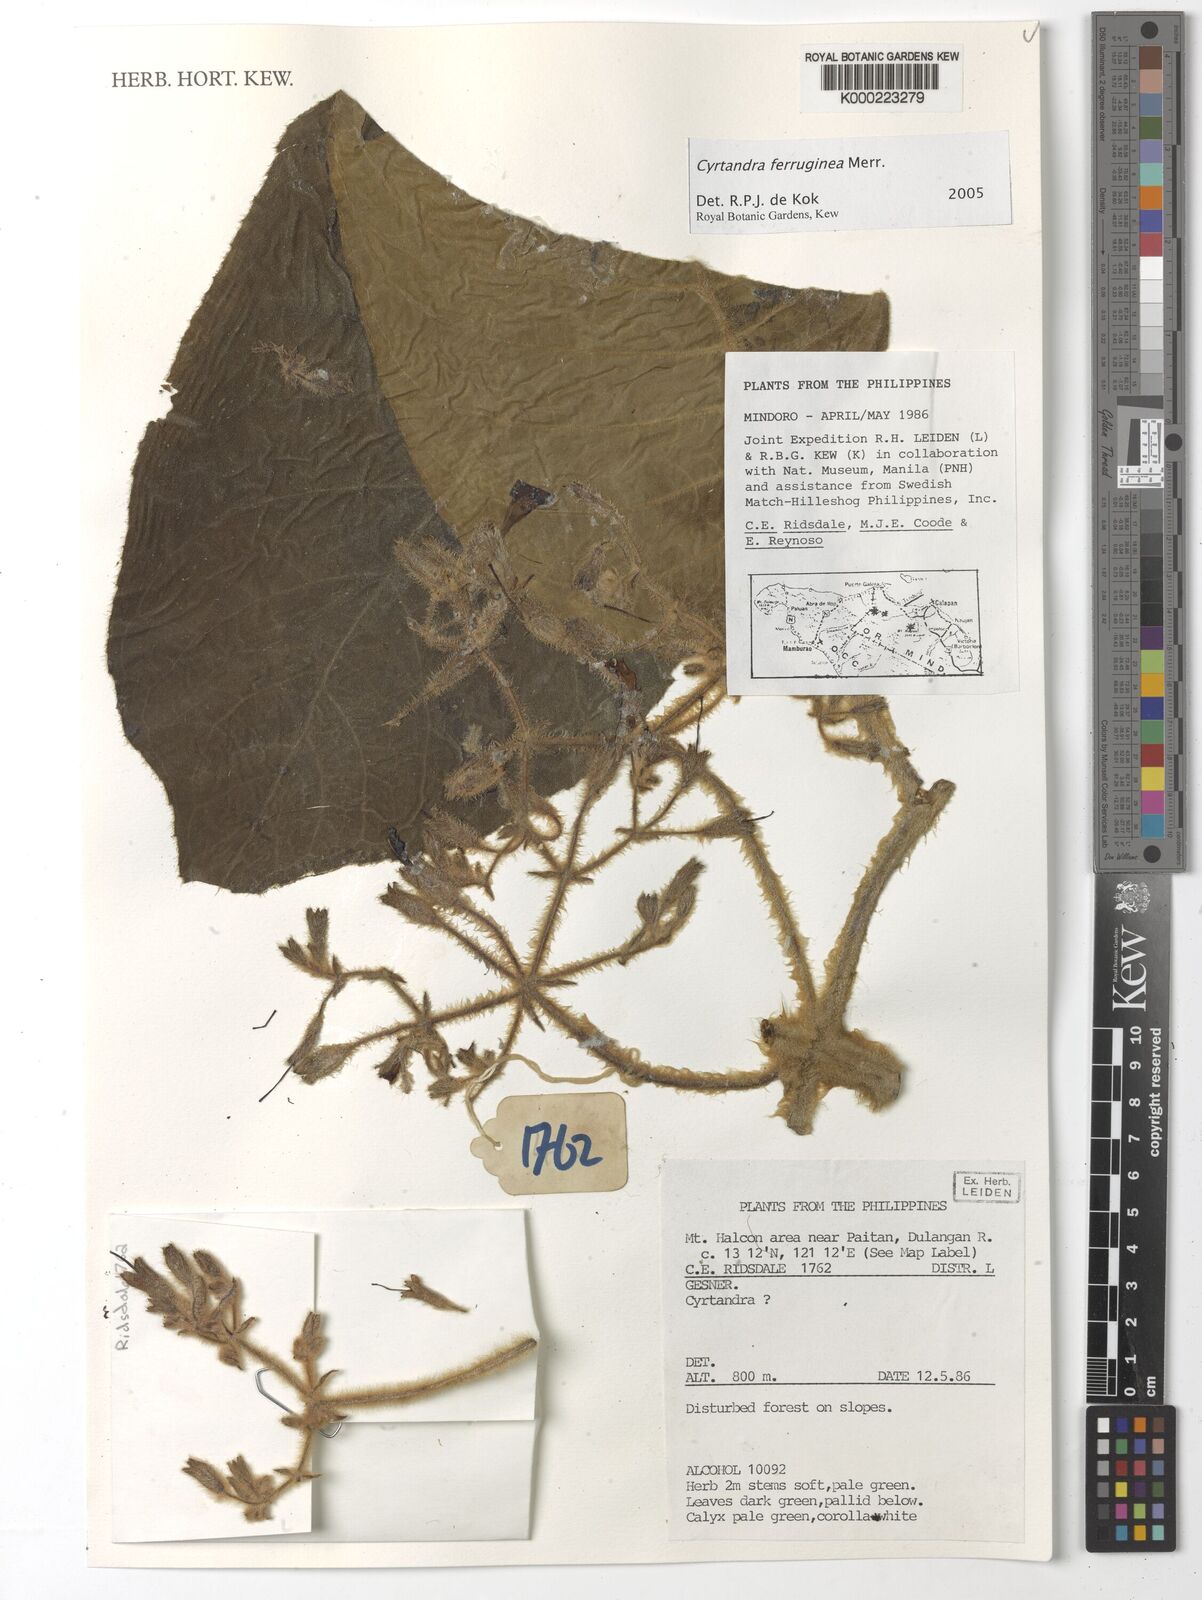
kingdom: Plantae
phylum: Tracheophyta
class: Magnoliopsida
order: Lamiales
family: Gesneriaceae
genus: Cyrtandra
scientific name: Cyrtandra ferruginea
